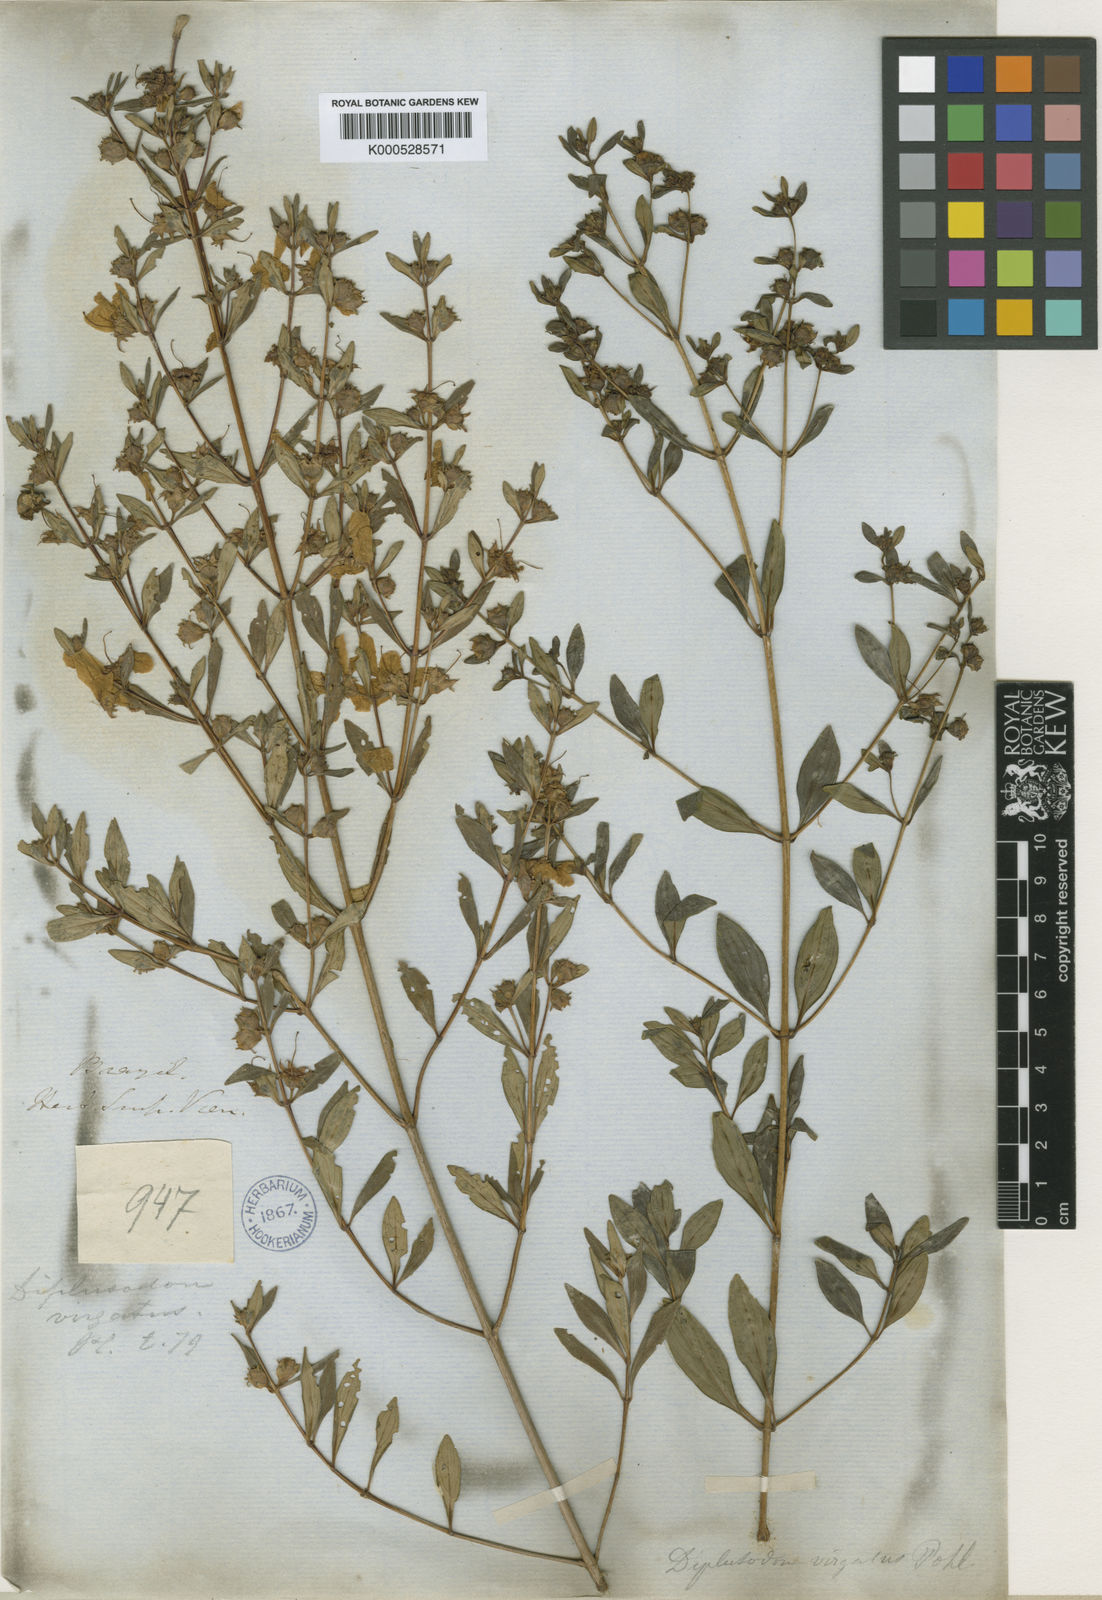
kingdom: Plantae
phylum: Tracheophyta
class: Magnoliopsida
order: Myrtales
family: Lythraceae
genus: Diplusodon
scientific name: Diplusodon virgatus
